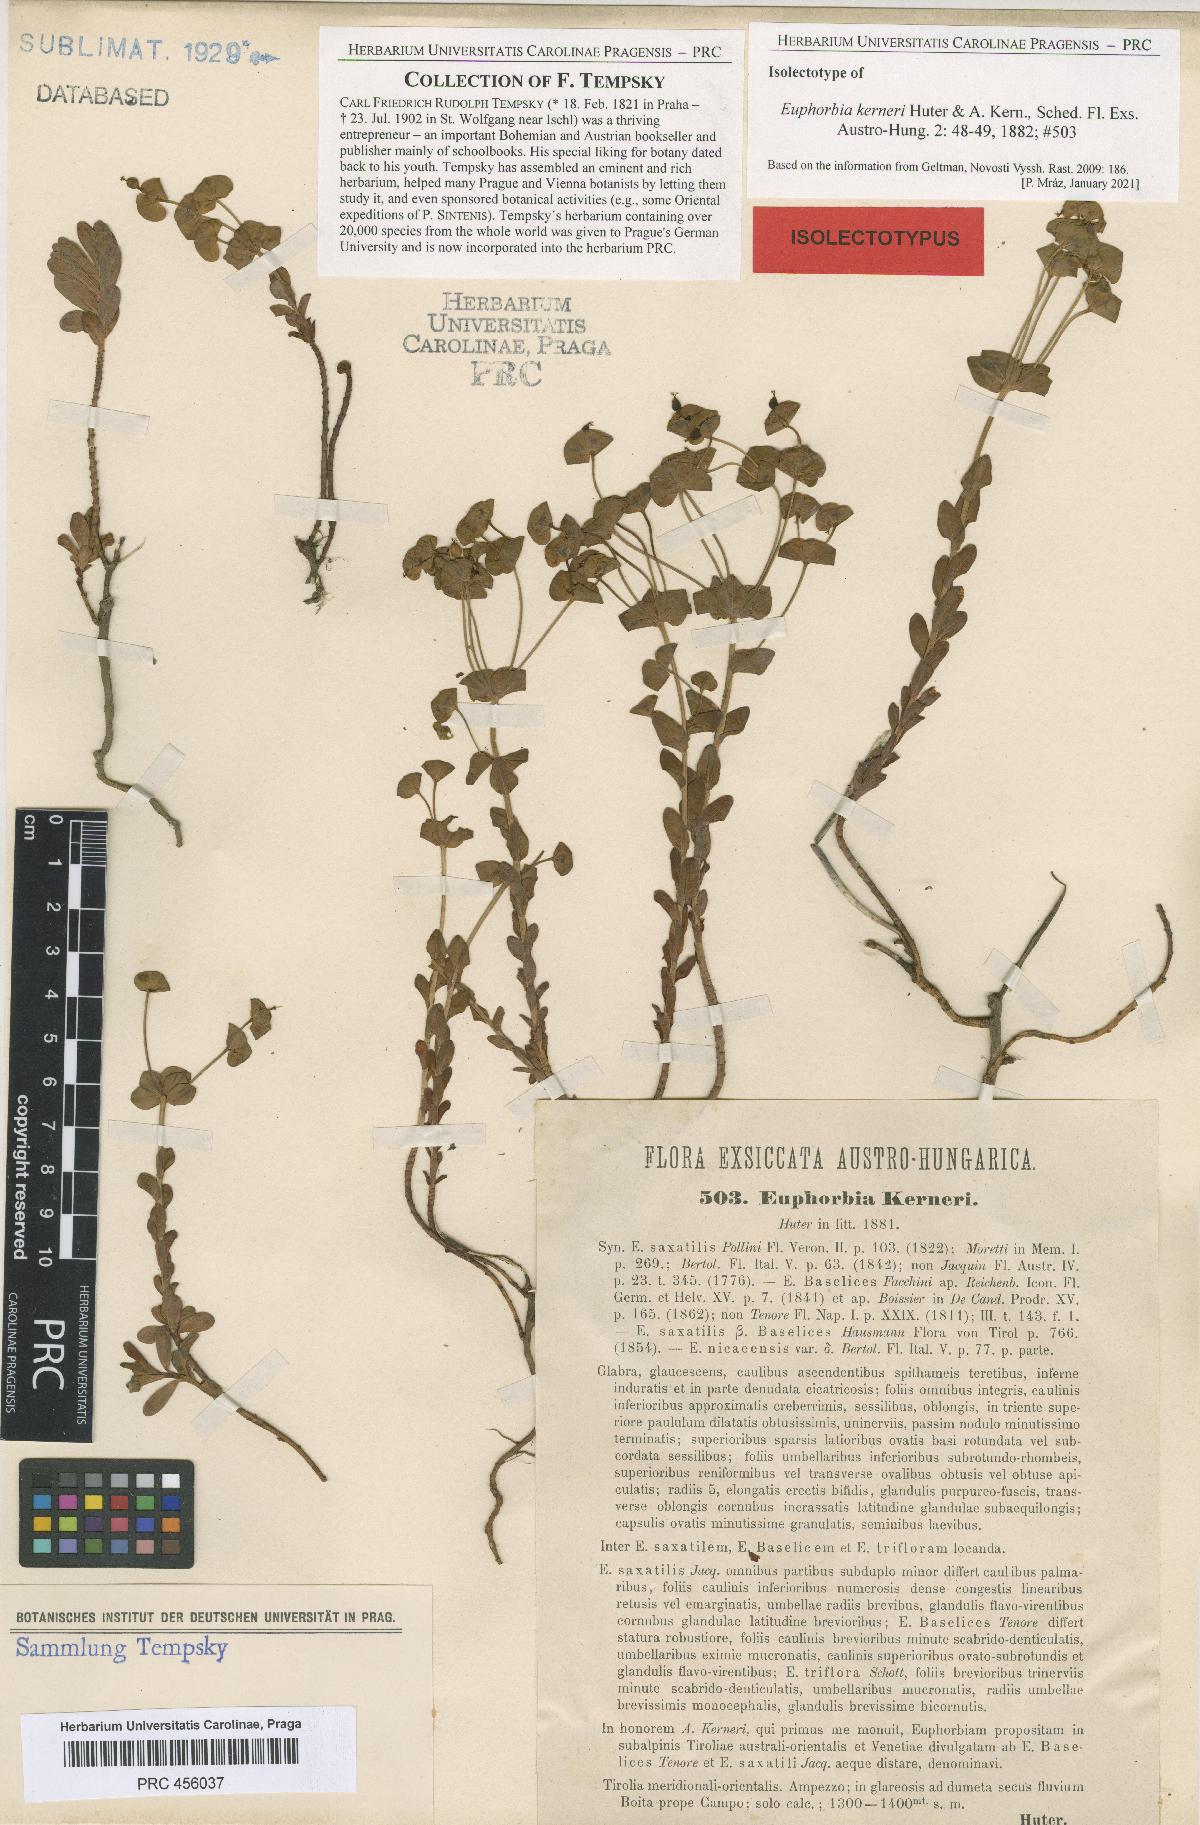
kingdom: Plantae
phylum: Tracheophyta
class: Magnoliopsida
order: Malpighiales
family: Euphorbiaceae
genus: Euphorbia
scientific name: Euphorbia kerneri
